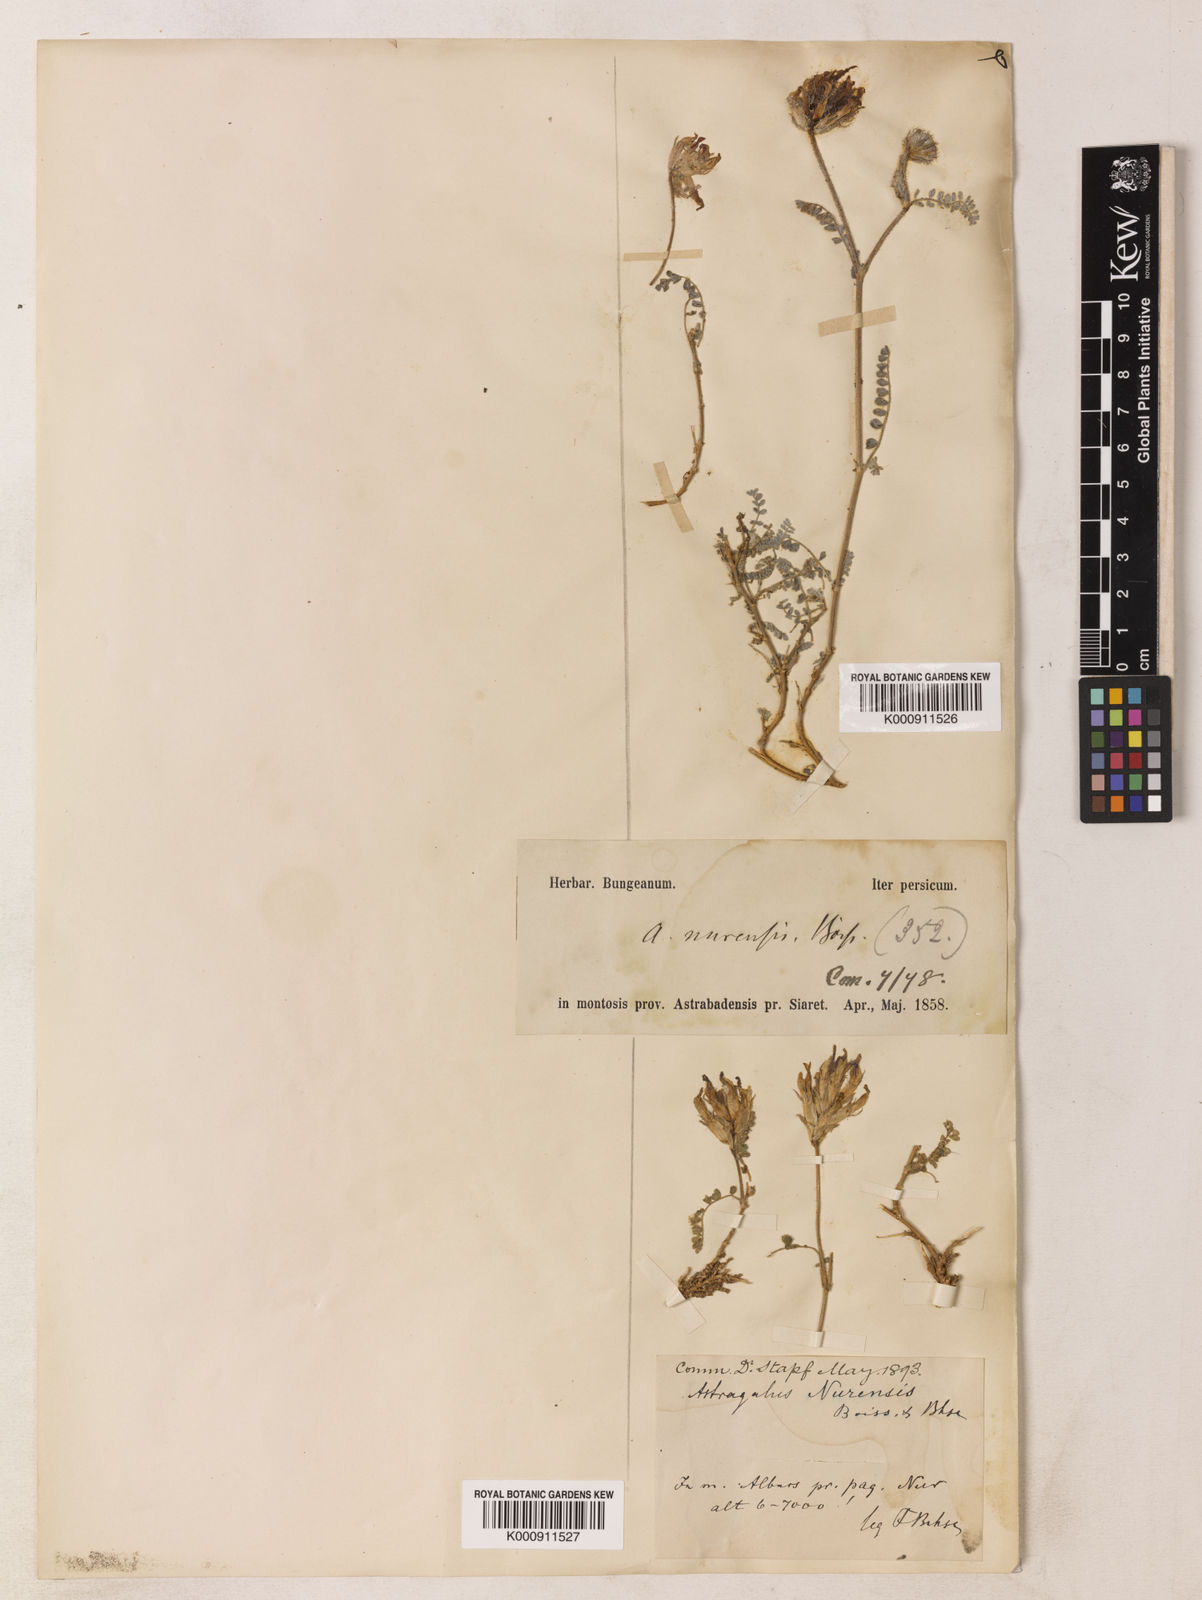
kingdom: Plantae
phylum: Tracheophyta
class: Magnoliopsida
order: Fabales
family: Fabaceae
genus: Astragalus
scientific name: Astragalus nurensis
